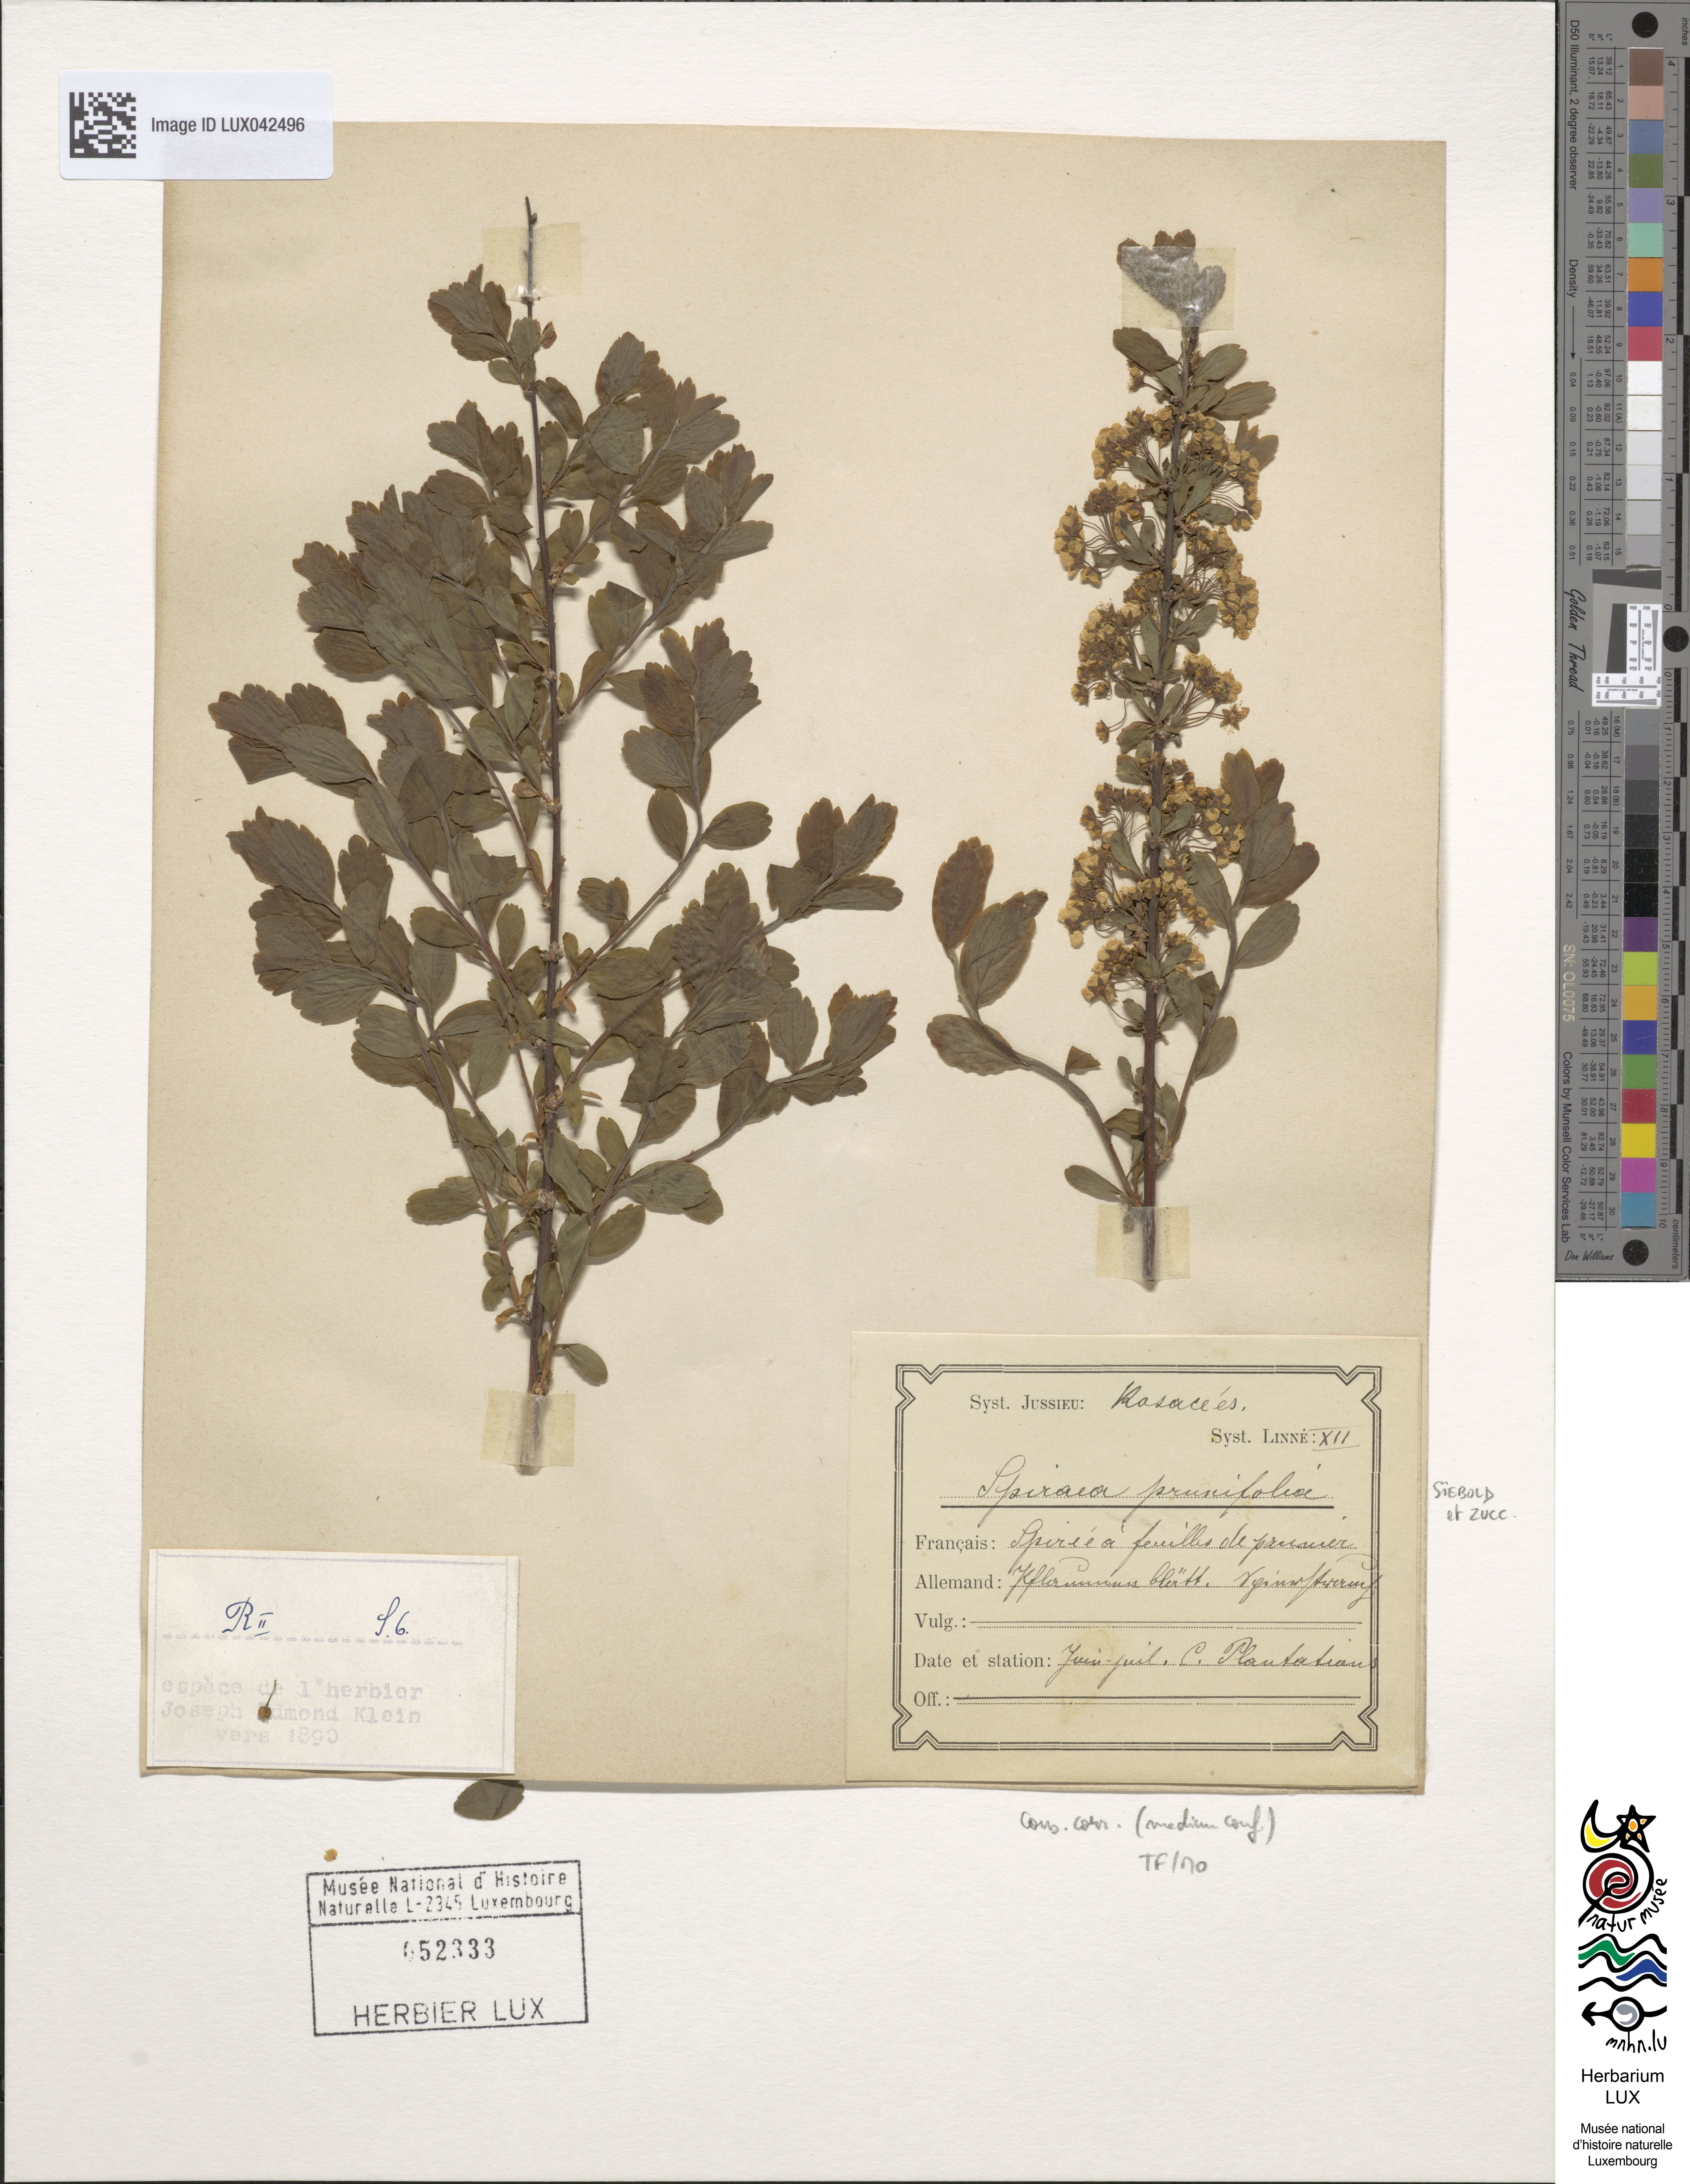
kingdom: Plantae
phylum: Tracheophyta
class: Magnoliopsida
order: Rosales
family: Rosaceae
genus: Spiraea
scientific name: Spiraea prunifolia
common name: Bridal-wreath spiraea
